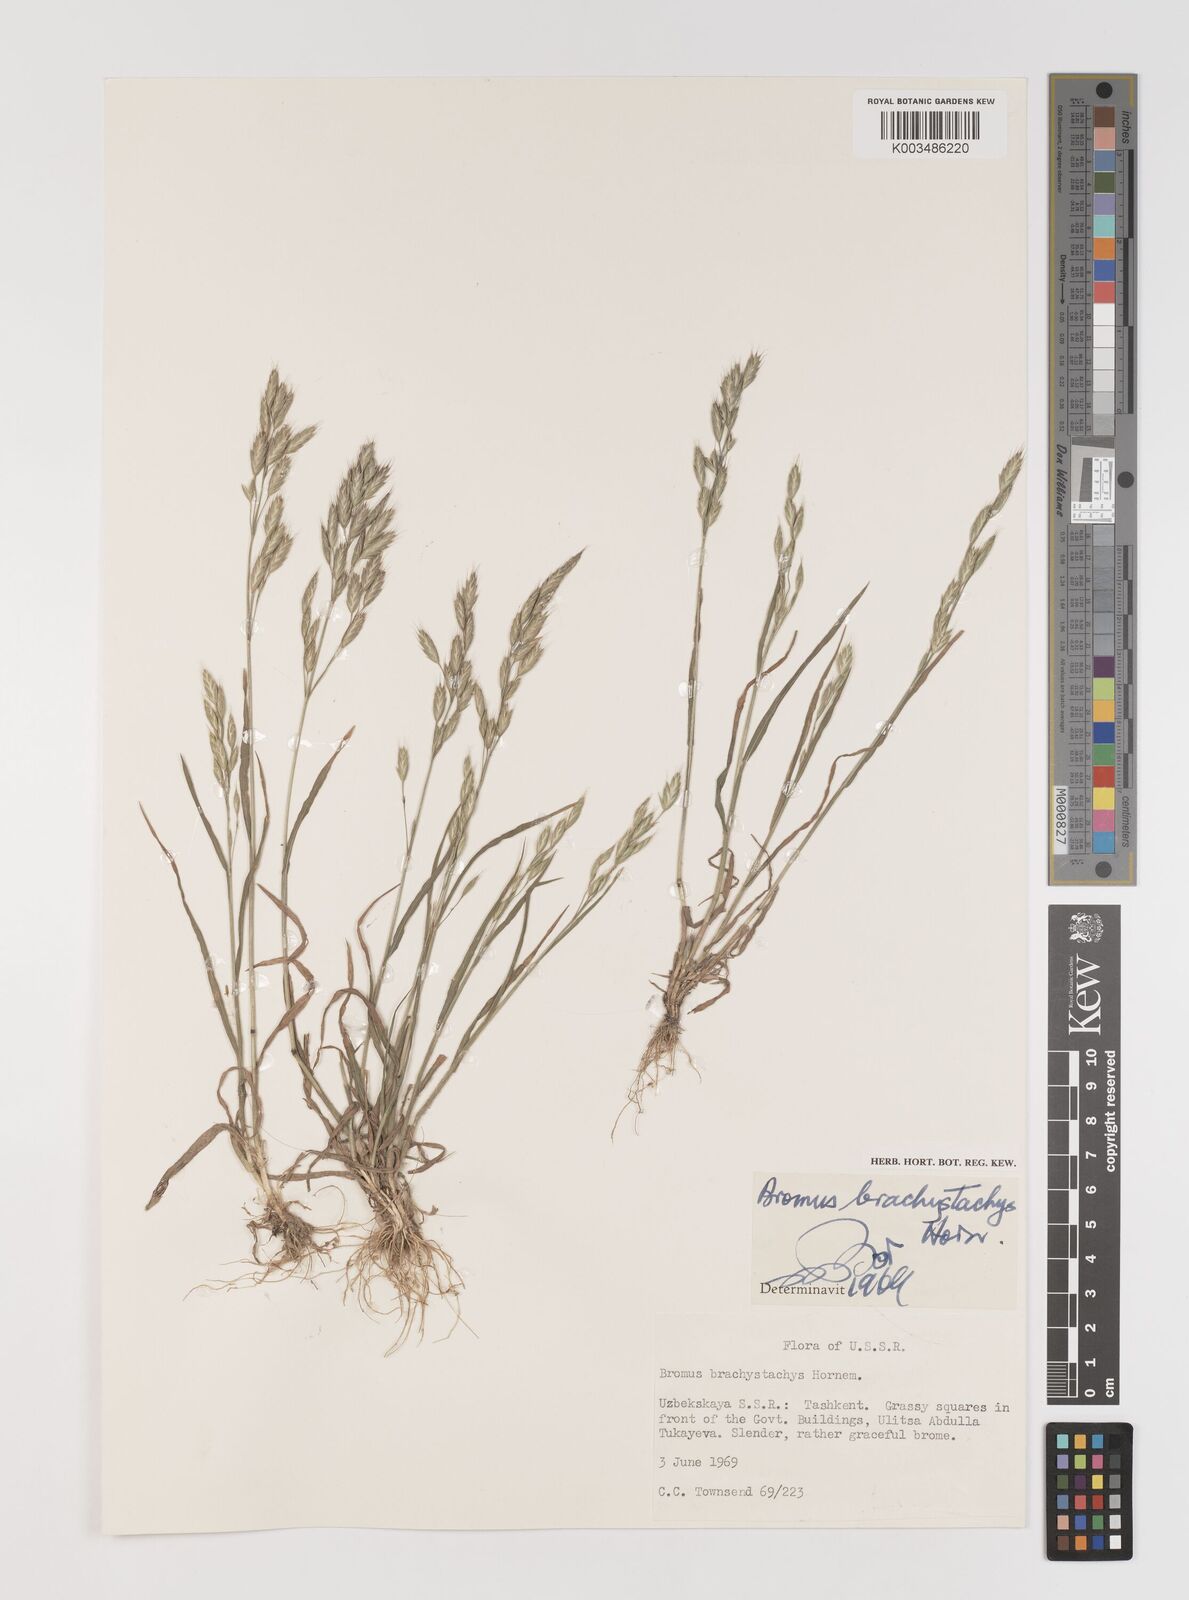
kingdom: Plantae
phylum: Tracheophyta
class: Liliopsida
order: Poales
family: Poaceae
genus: Bromus
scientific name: Bromus
